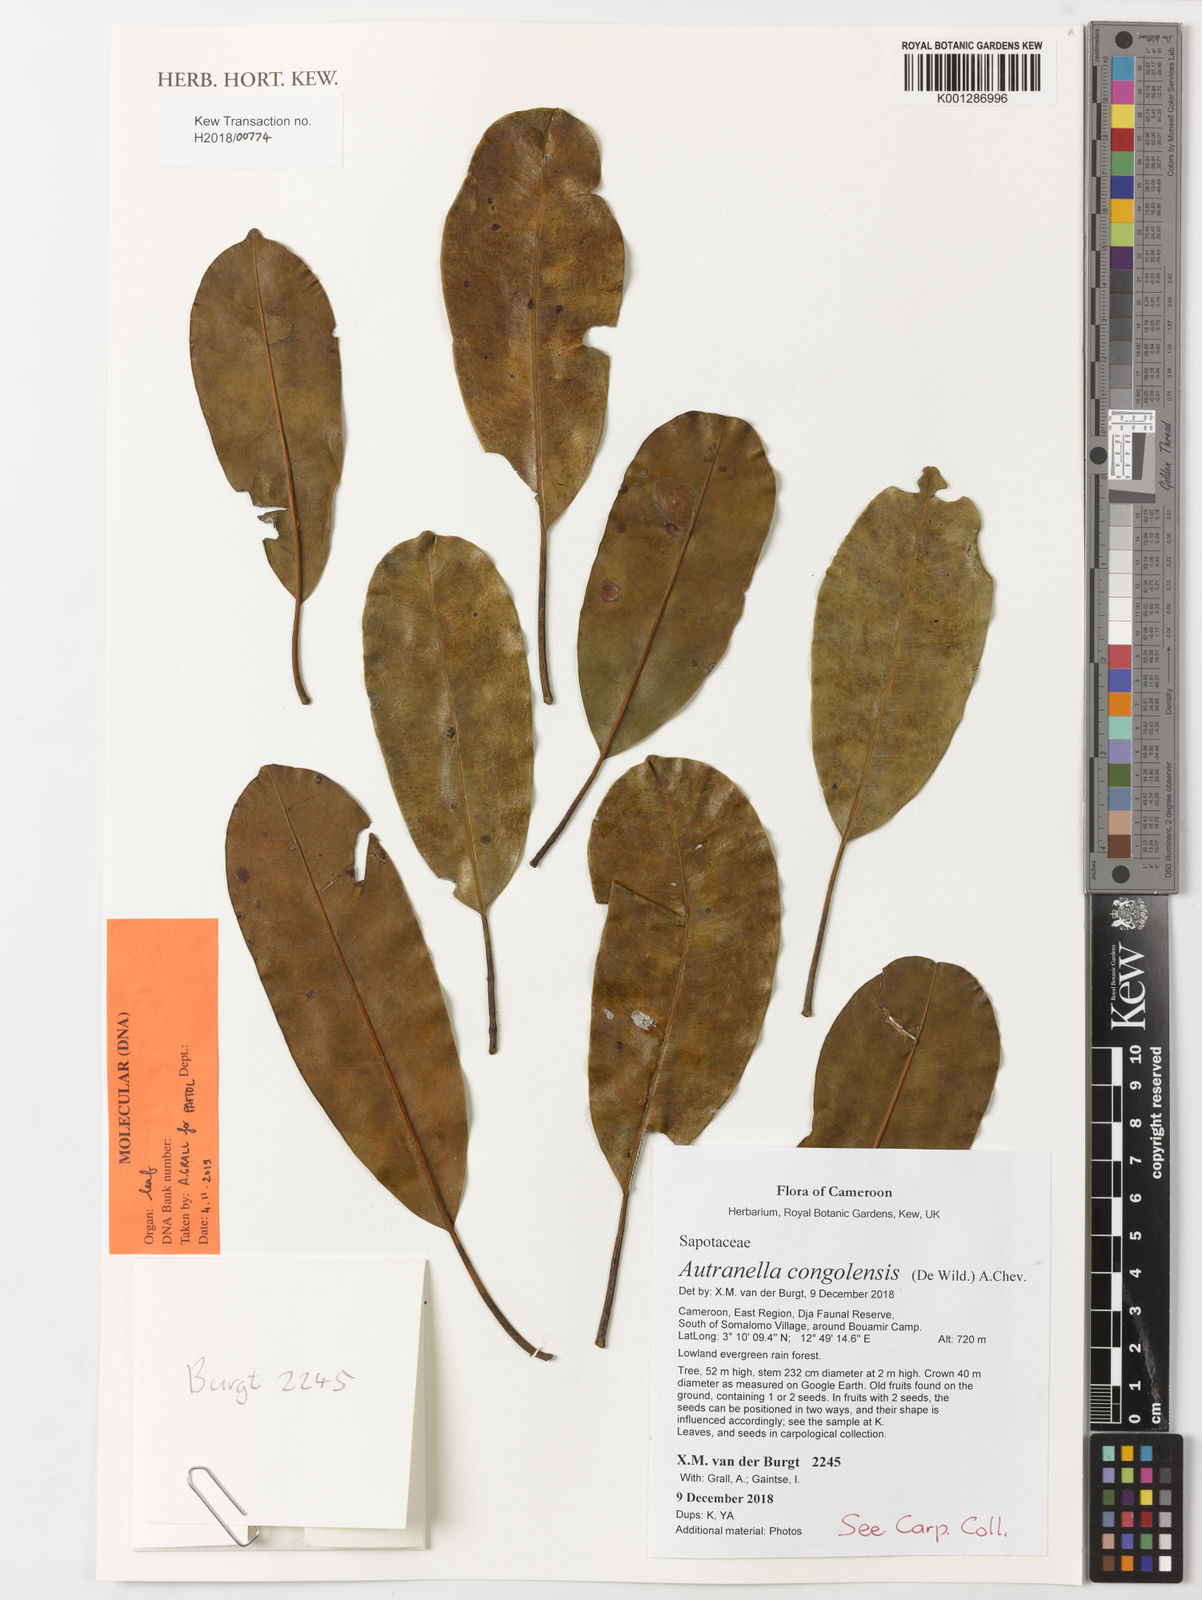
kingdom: Plantae
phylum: Tracheophyta
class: Magnoliopsida
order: Ericales
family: Sapotaceae
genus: Autranella
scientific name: Autranella congolensis
